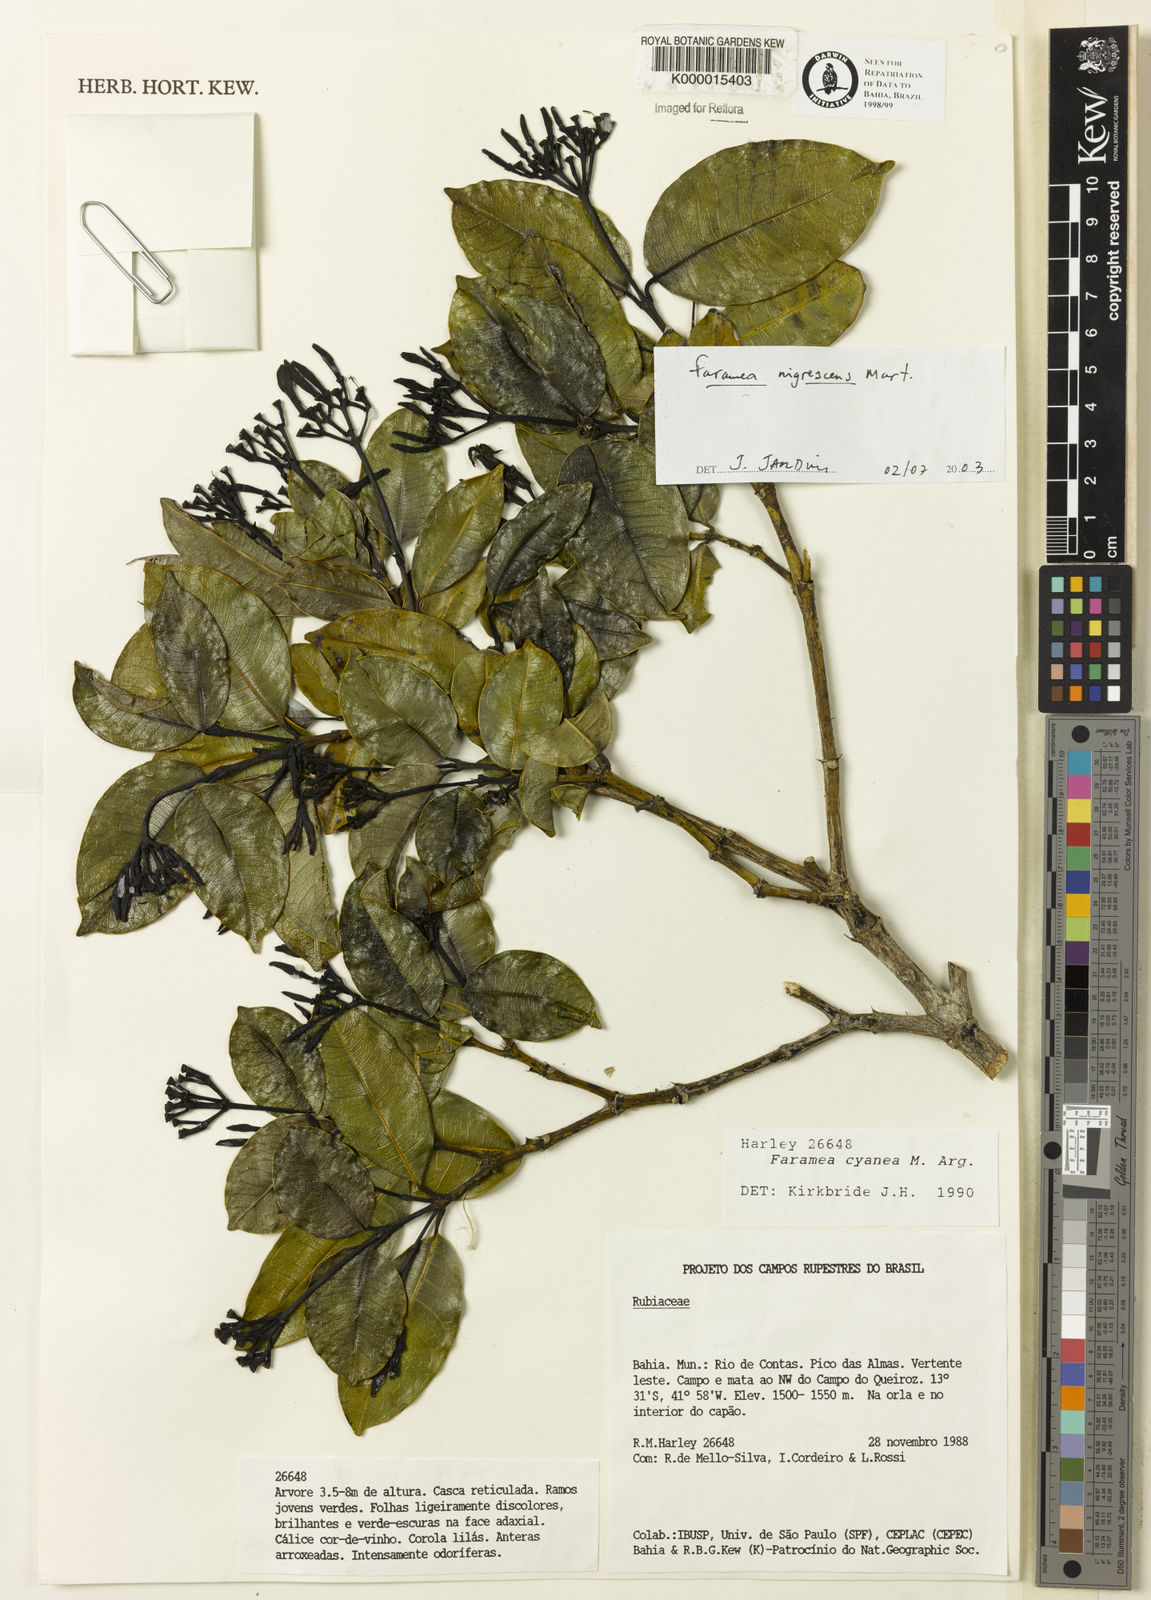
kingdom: Plantae
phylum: Tracheophyta
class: Magnoliopsida
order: Gentianales
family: Rubiaceae
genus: Faramea
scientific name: Faramea nigrescens
